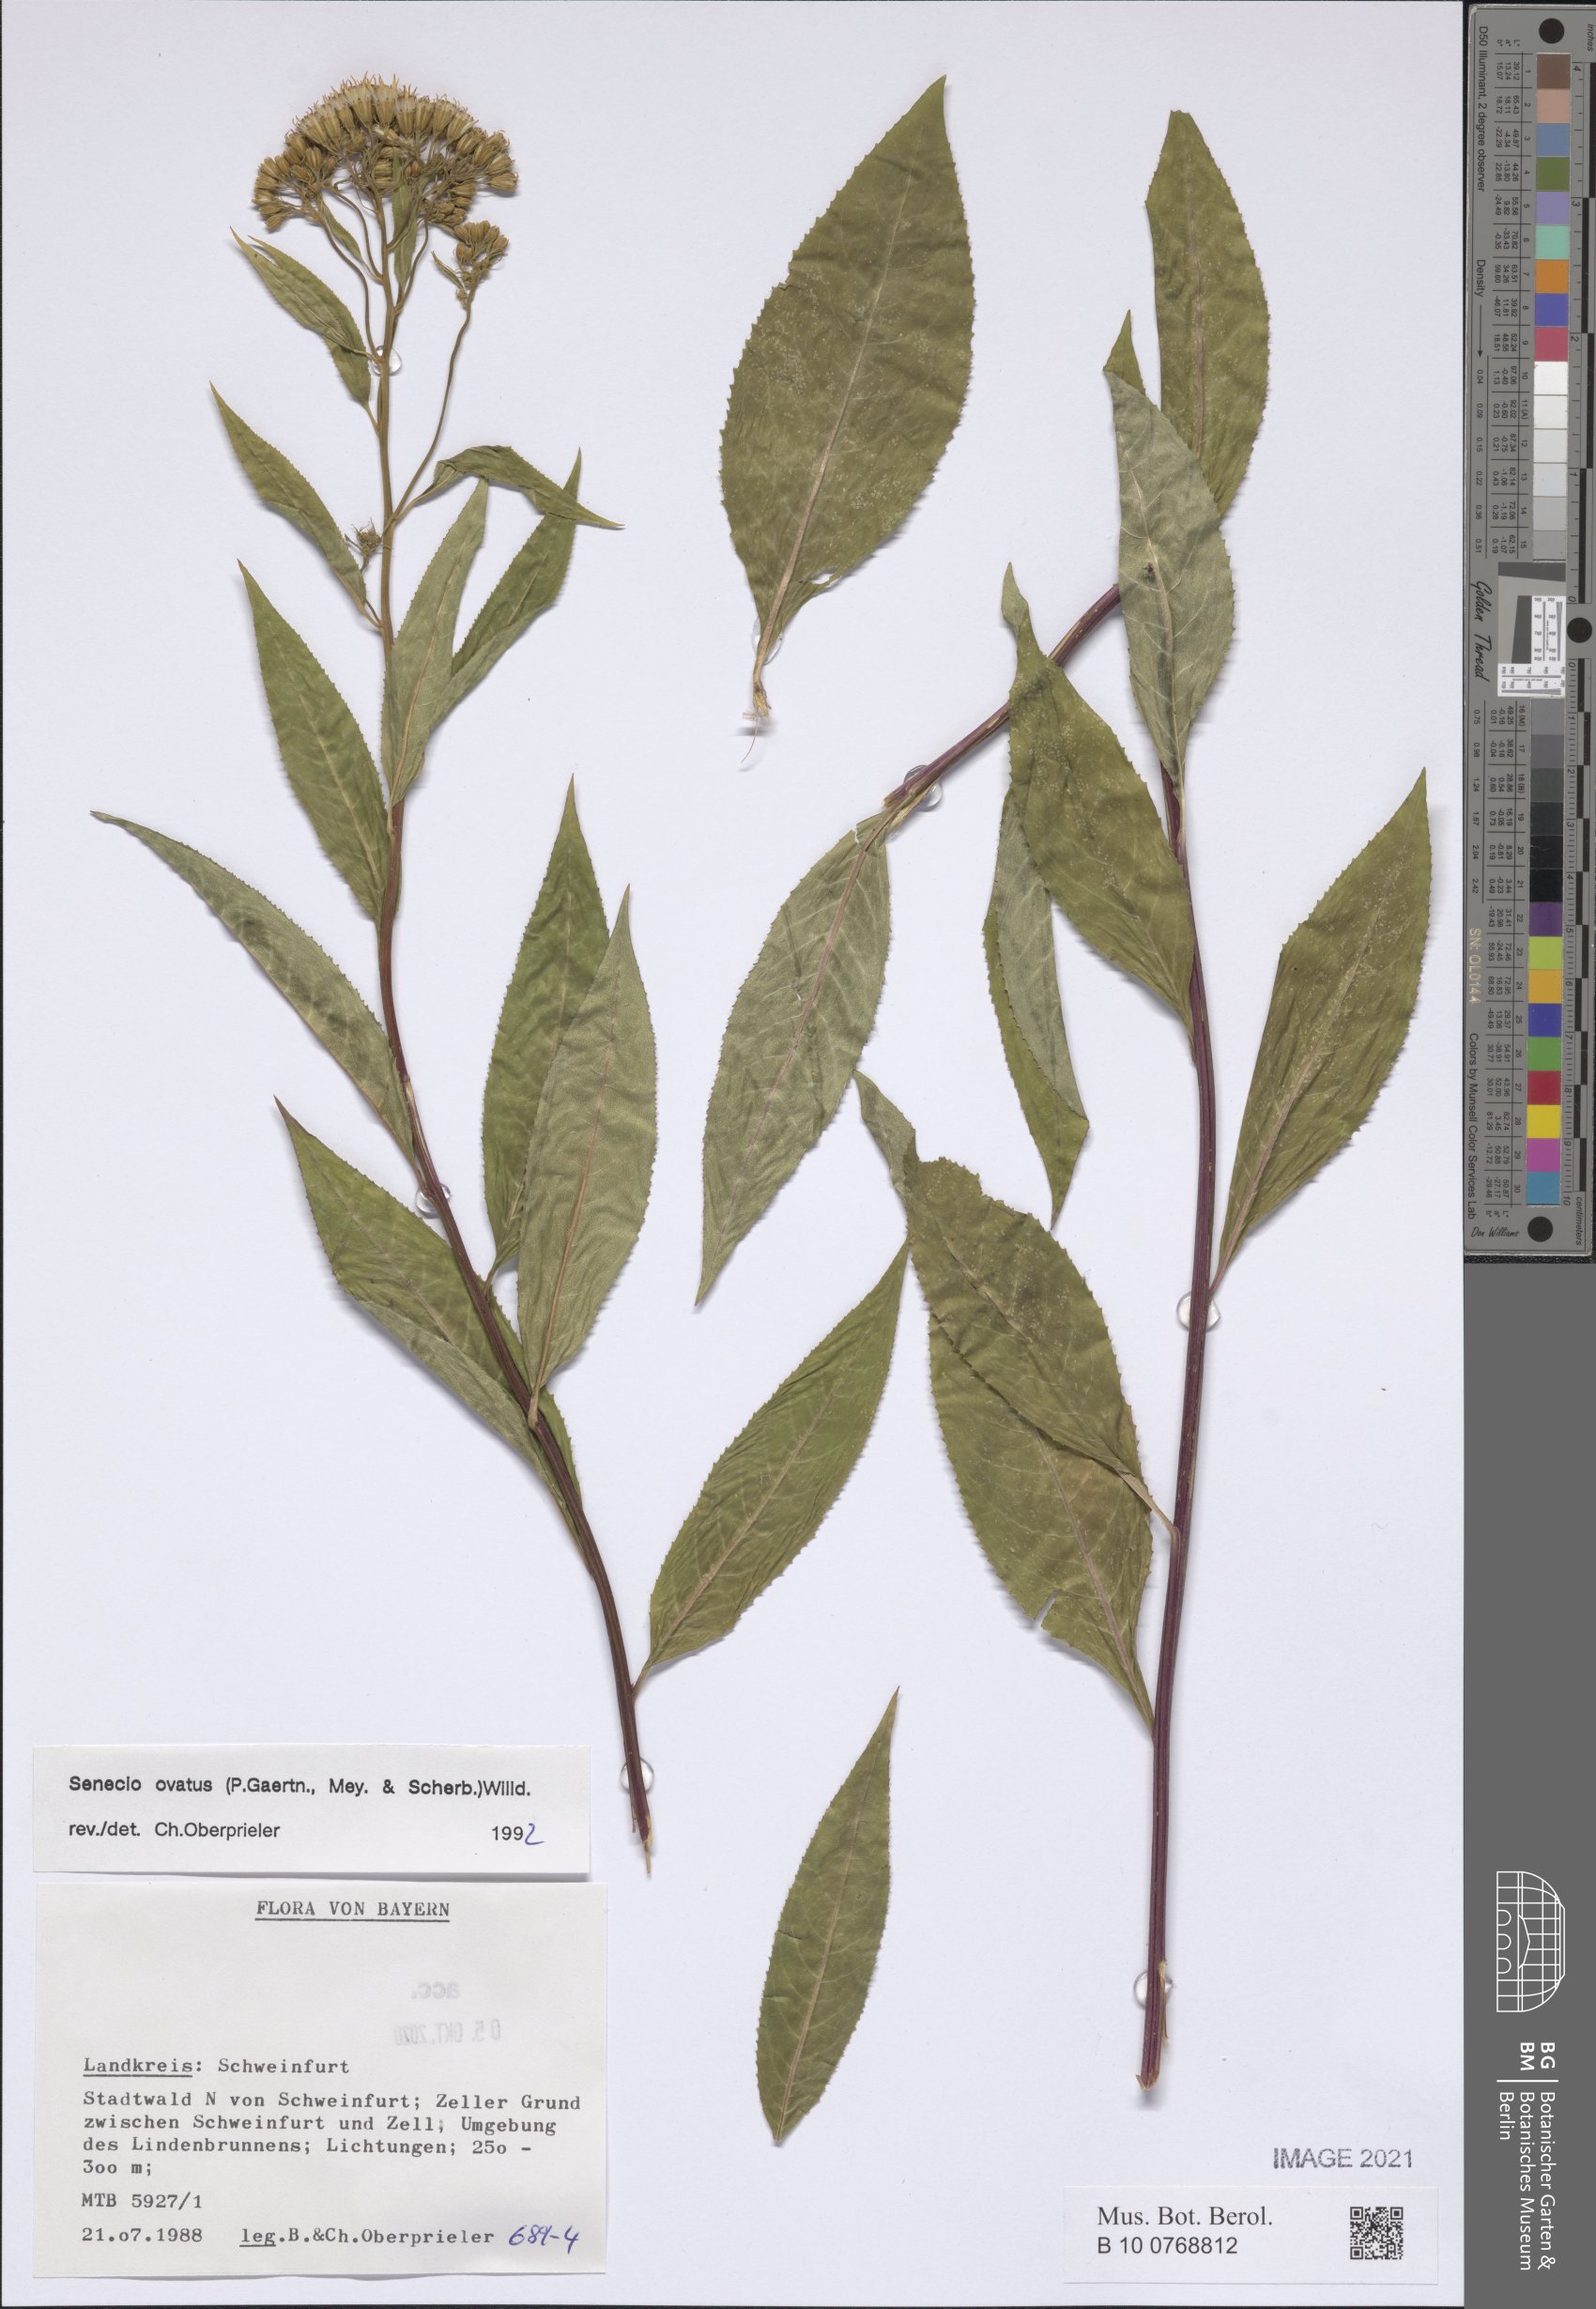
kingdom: Plantae
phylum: Tracheophyta
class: Magnoliopsida
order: Asterales
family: Asteraceae
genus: Senecio
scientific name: Senecio ovatus
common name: Wood ragwort
